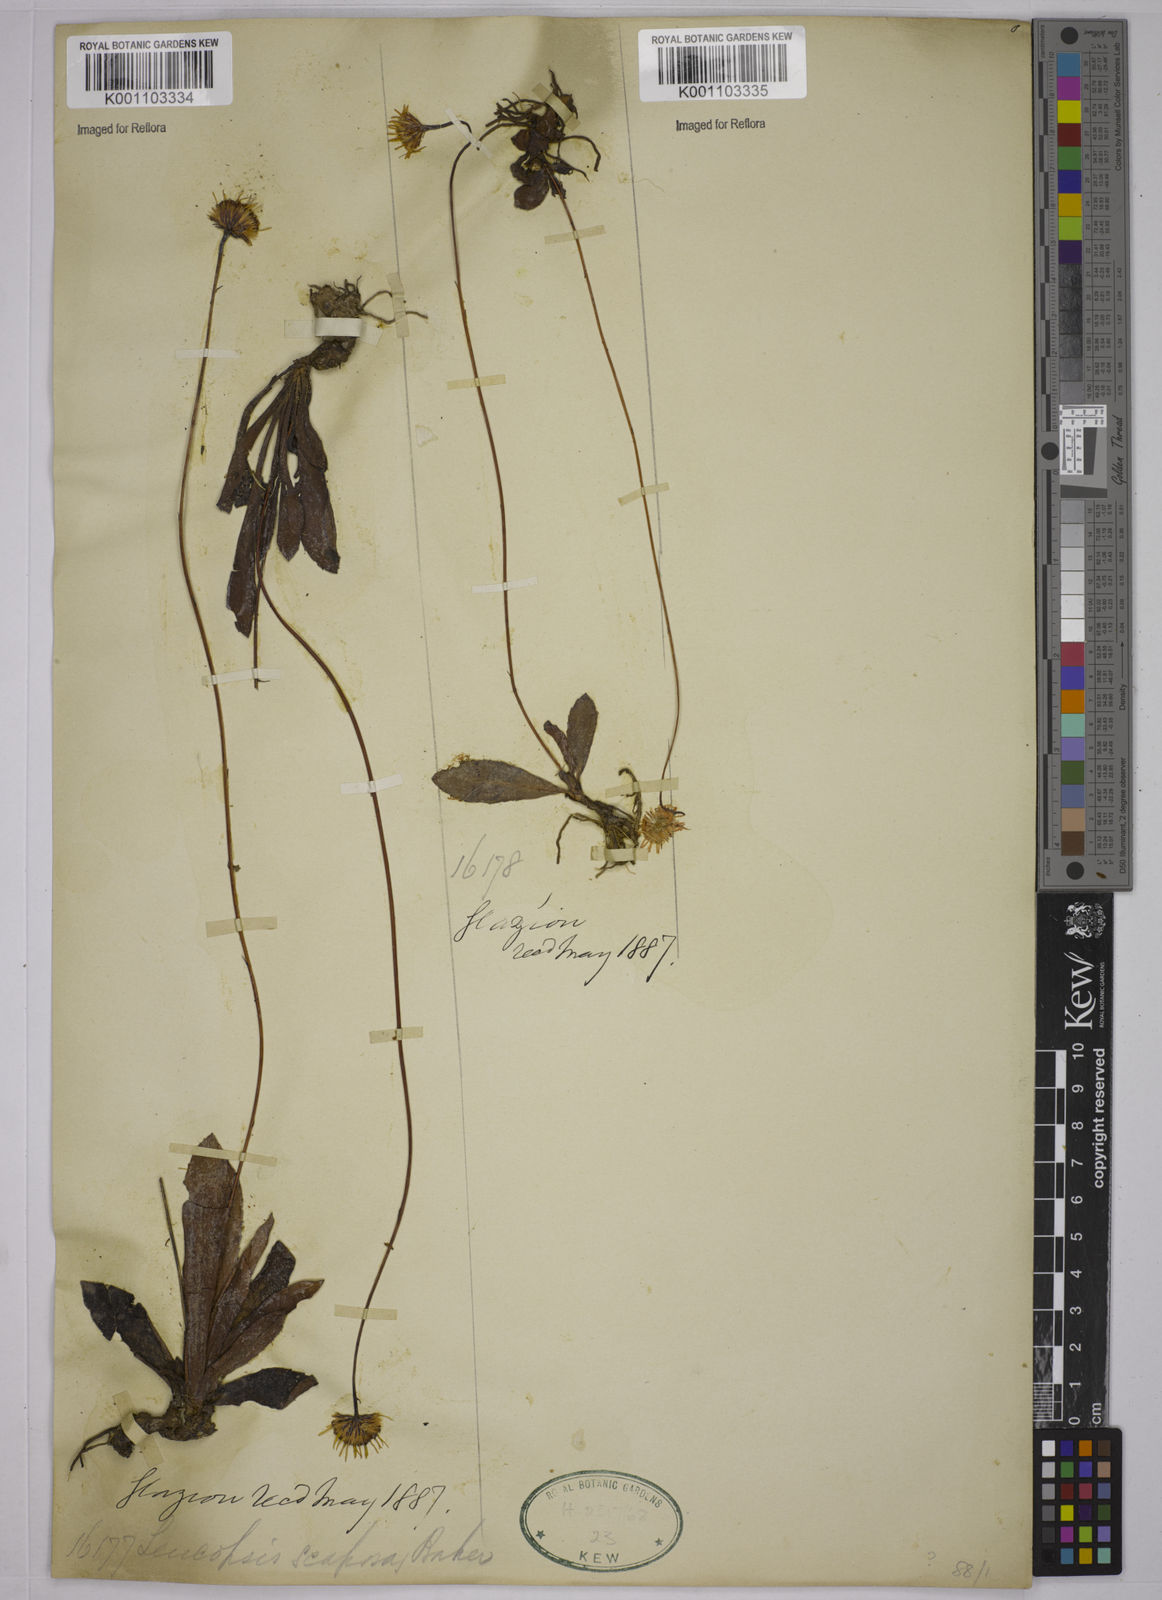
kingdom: Plantae
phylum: Tracheophyta
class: Magnoliopsida
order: Asterales
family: Asteraceae
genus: Inulopsis
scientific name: Inulopsis scaposa
